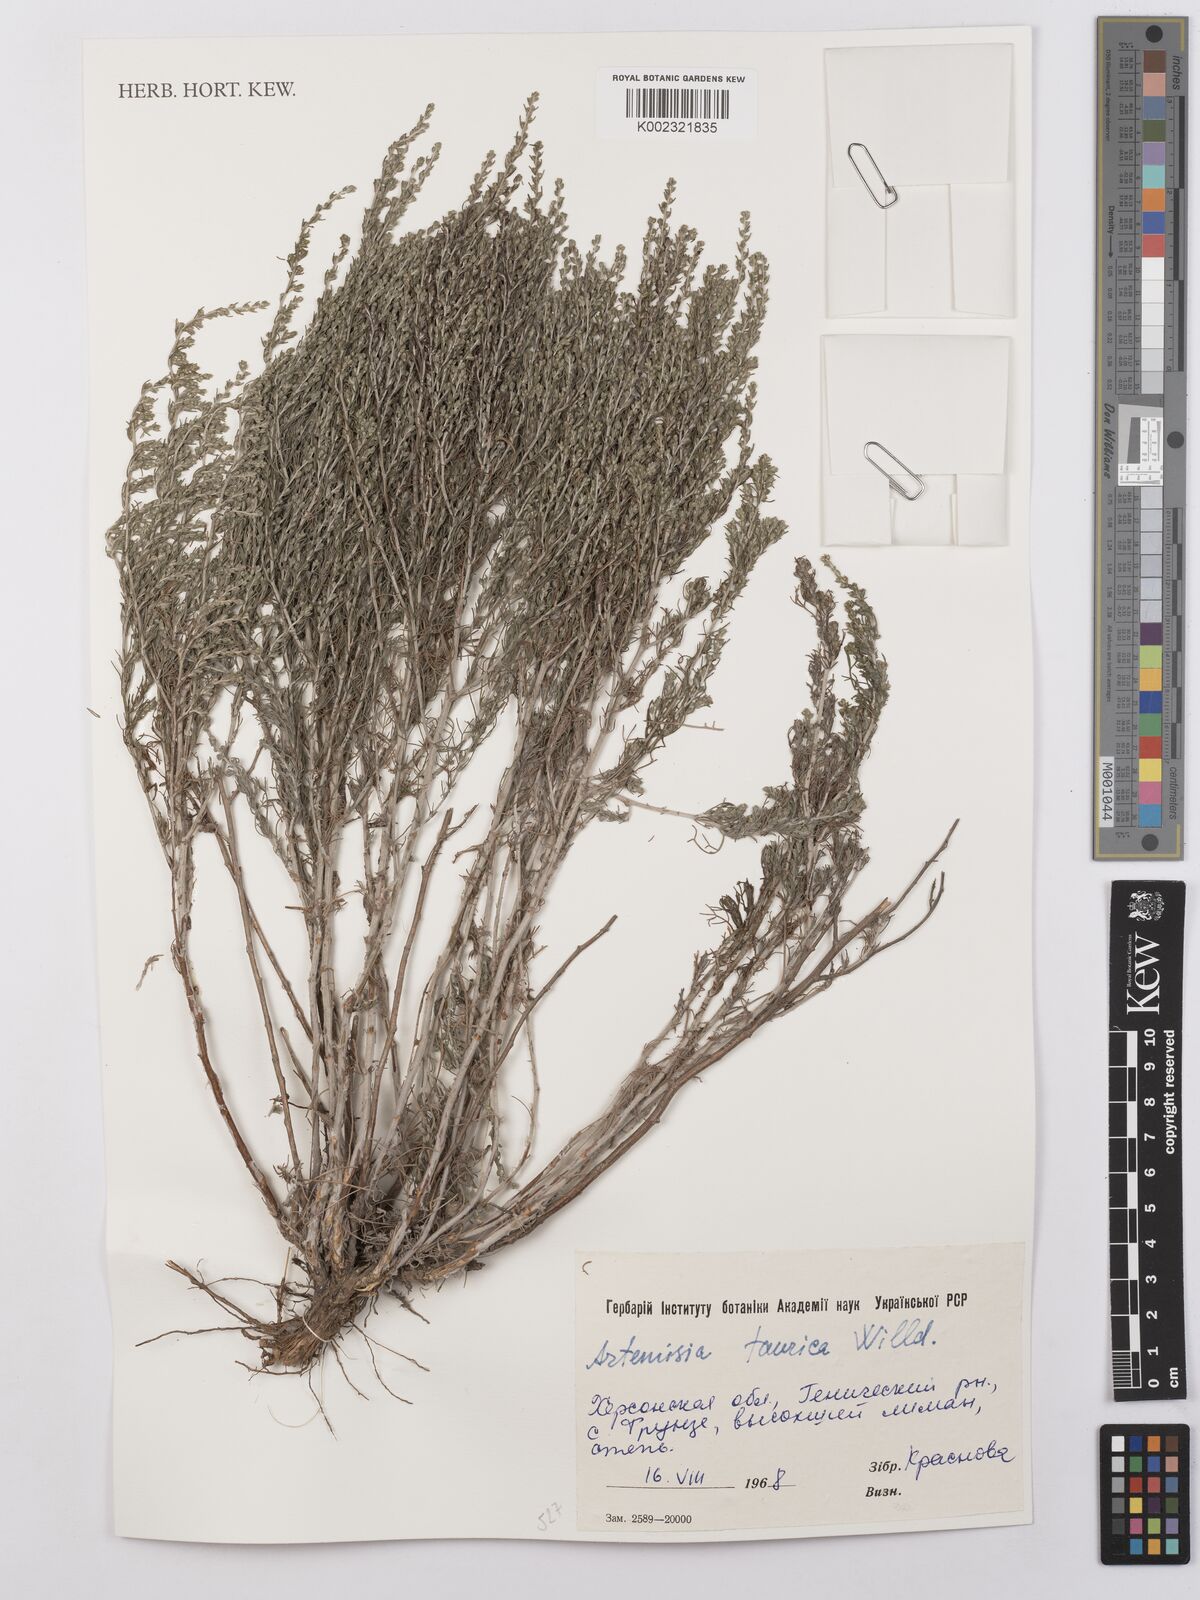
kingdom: Plantae
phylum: Tracheophyta
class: Magnoliopsida
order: Asterales
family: Asteraceae
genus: Artemisia
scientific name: Artemisia turanica
